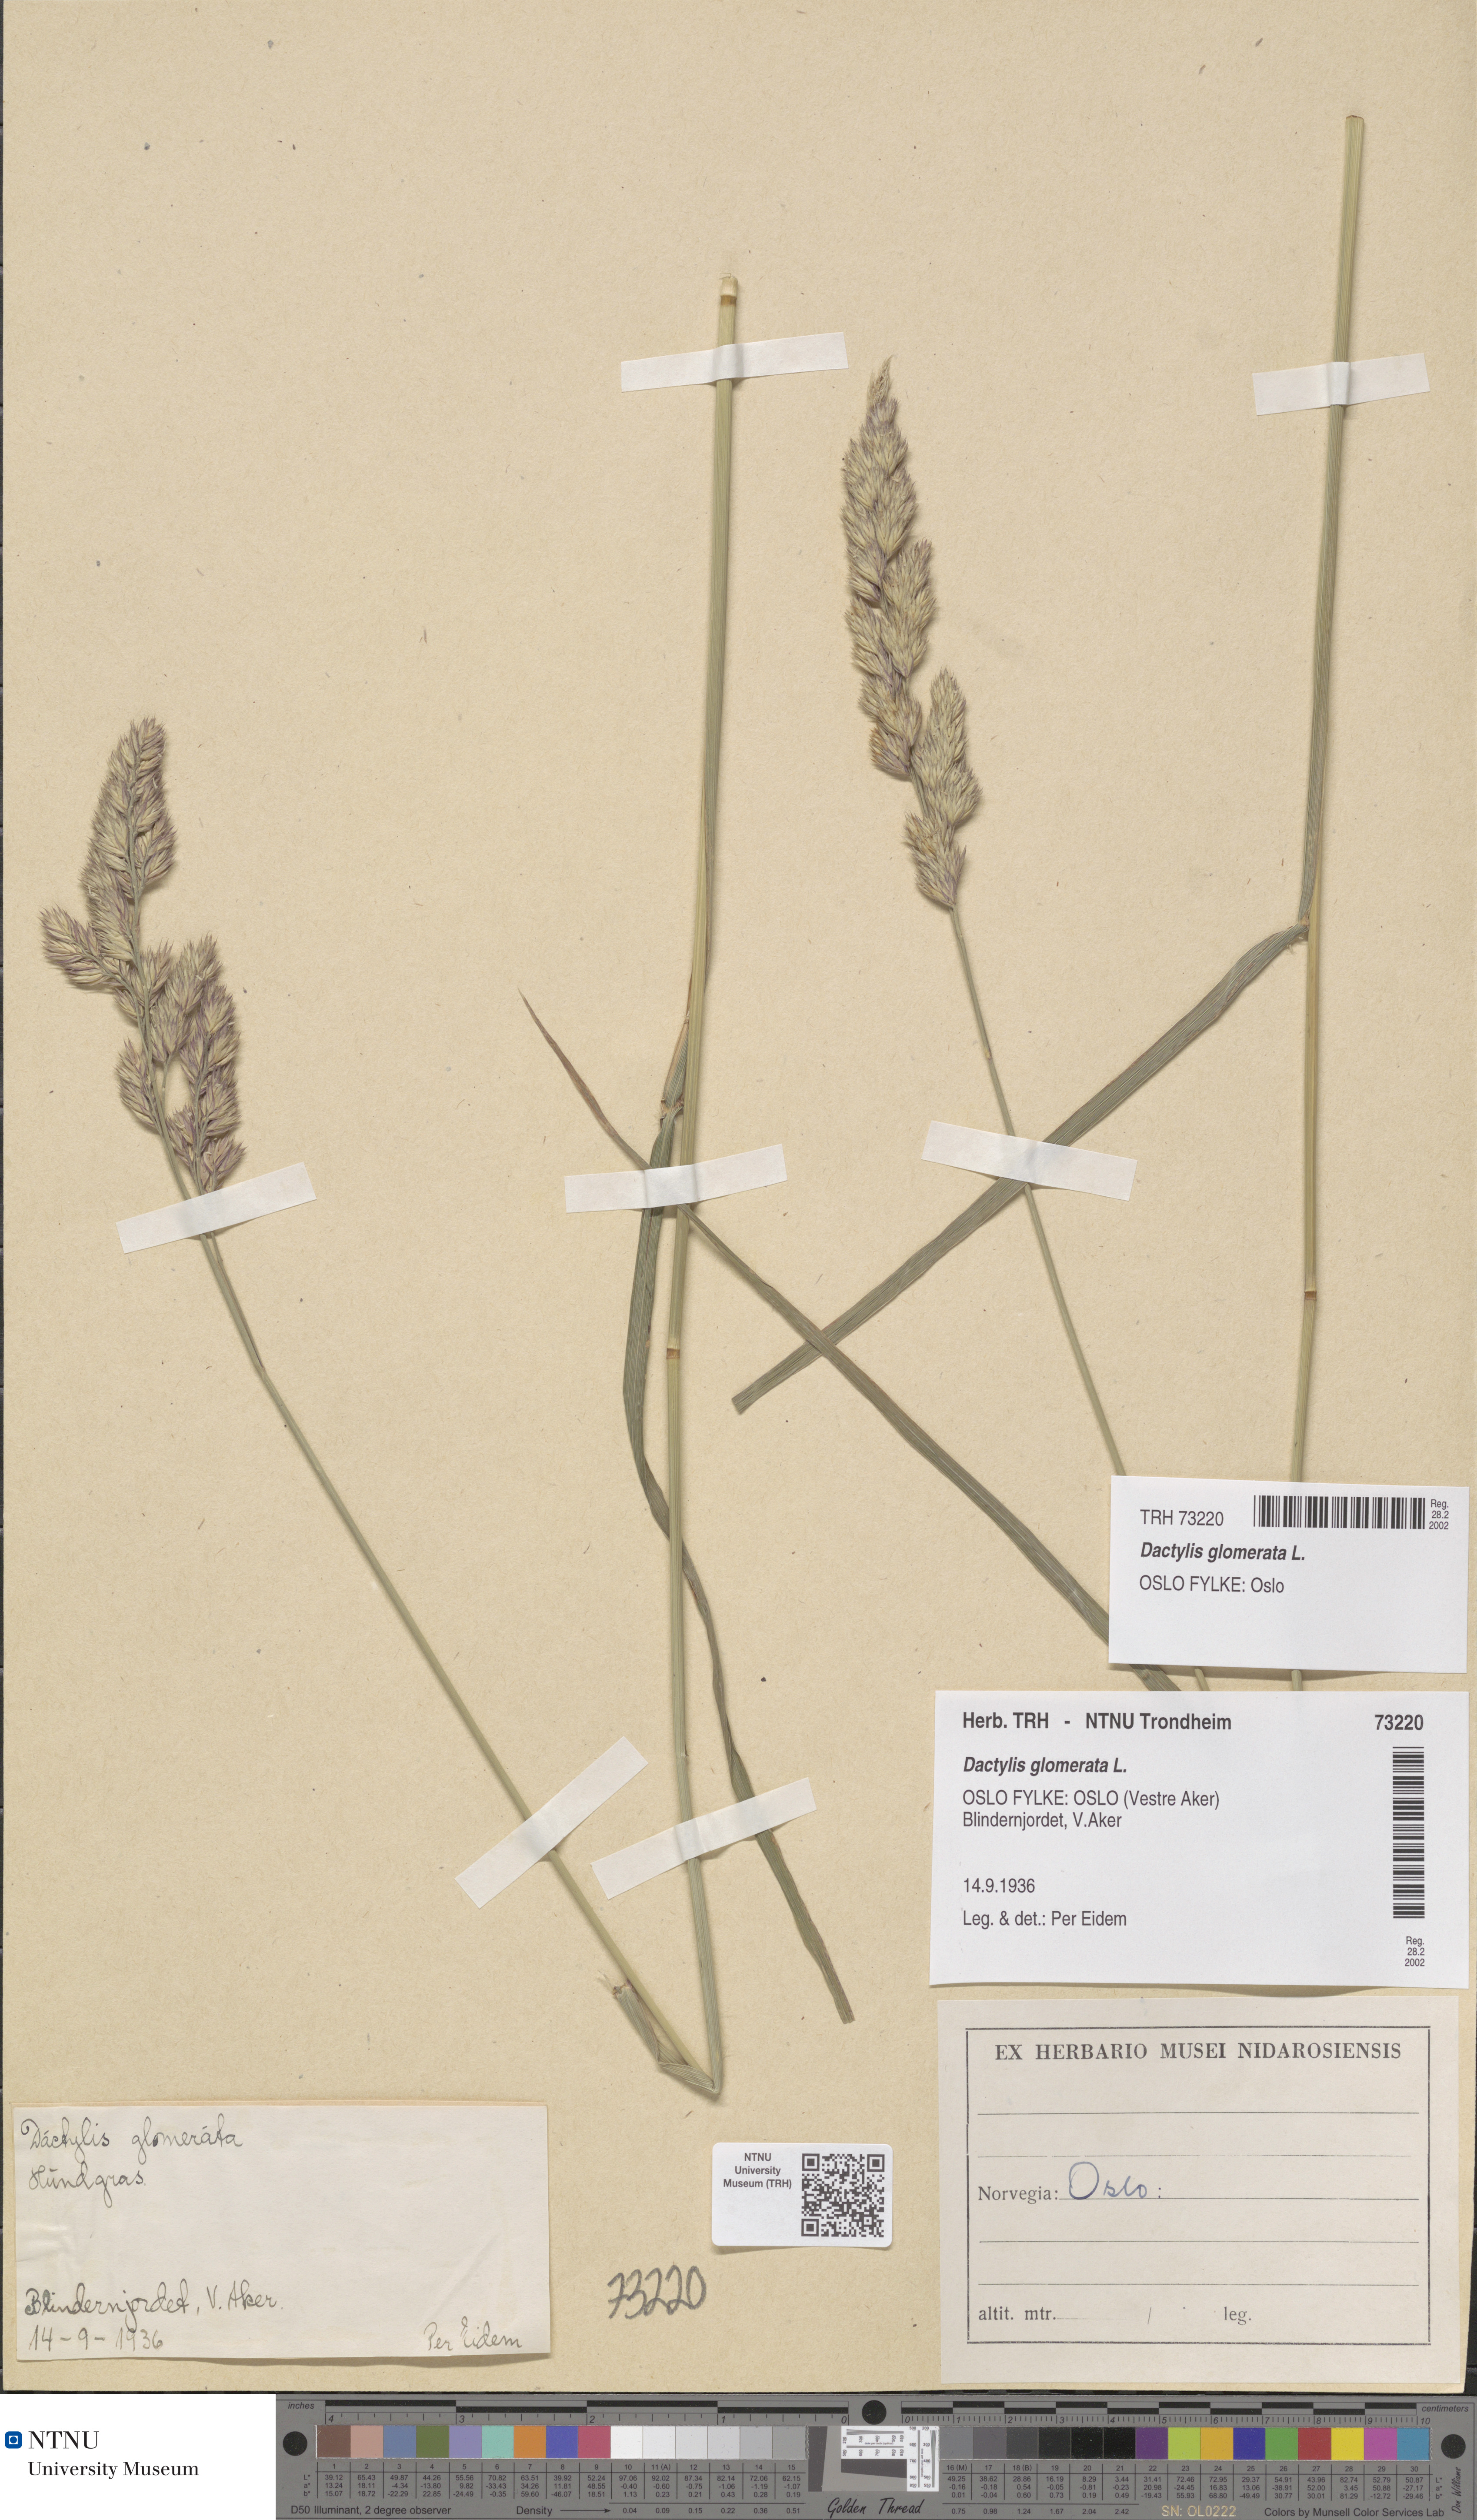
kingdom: Plantae
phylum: Tracheophyta
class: Liliopsida
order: Poales
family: Poaceae
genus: Dactylis
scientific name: Dactylis glomerata
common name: Orchardgrass
